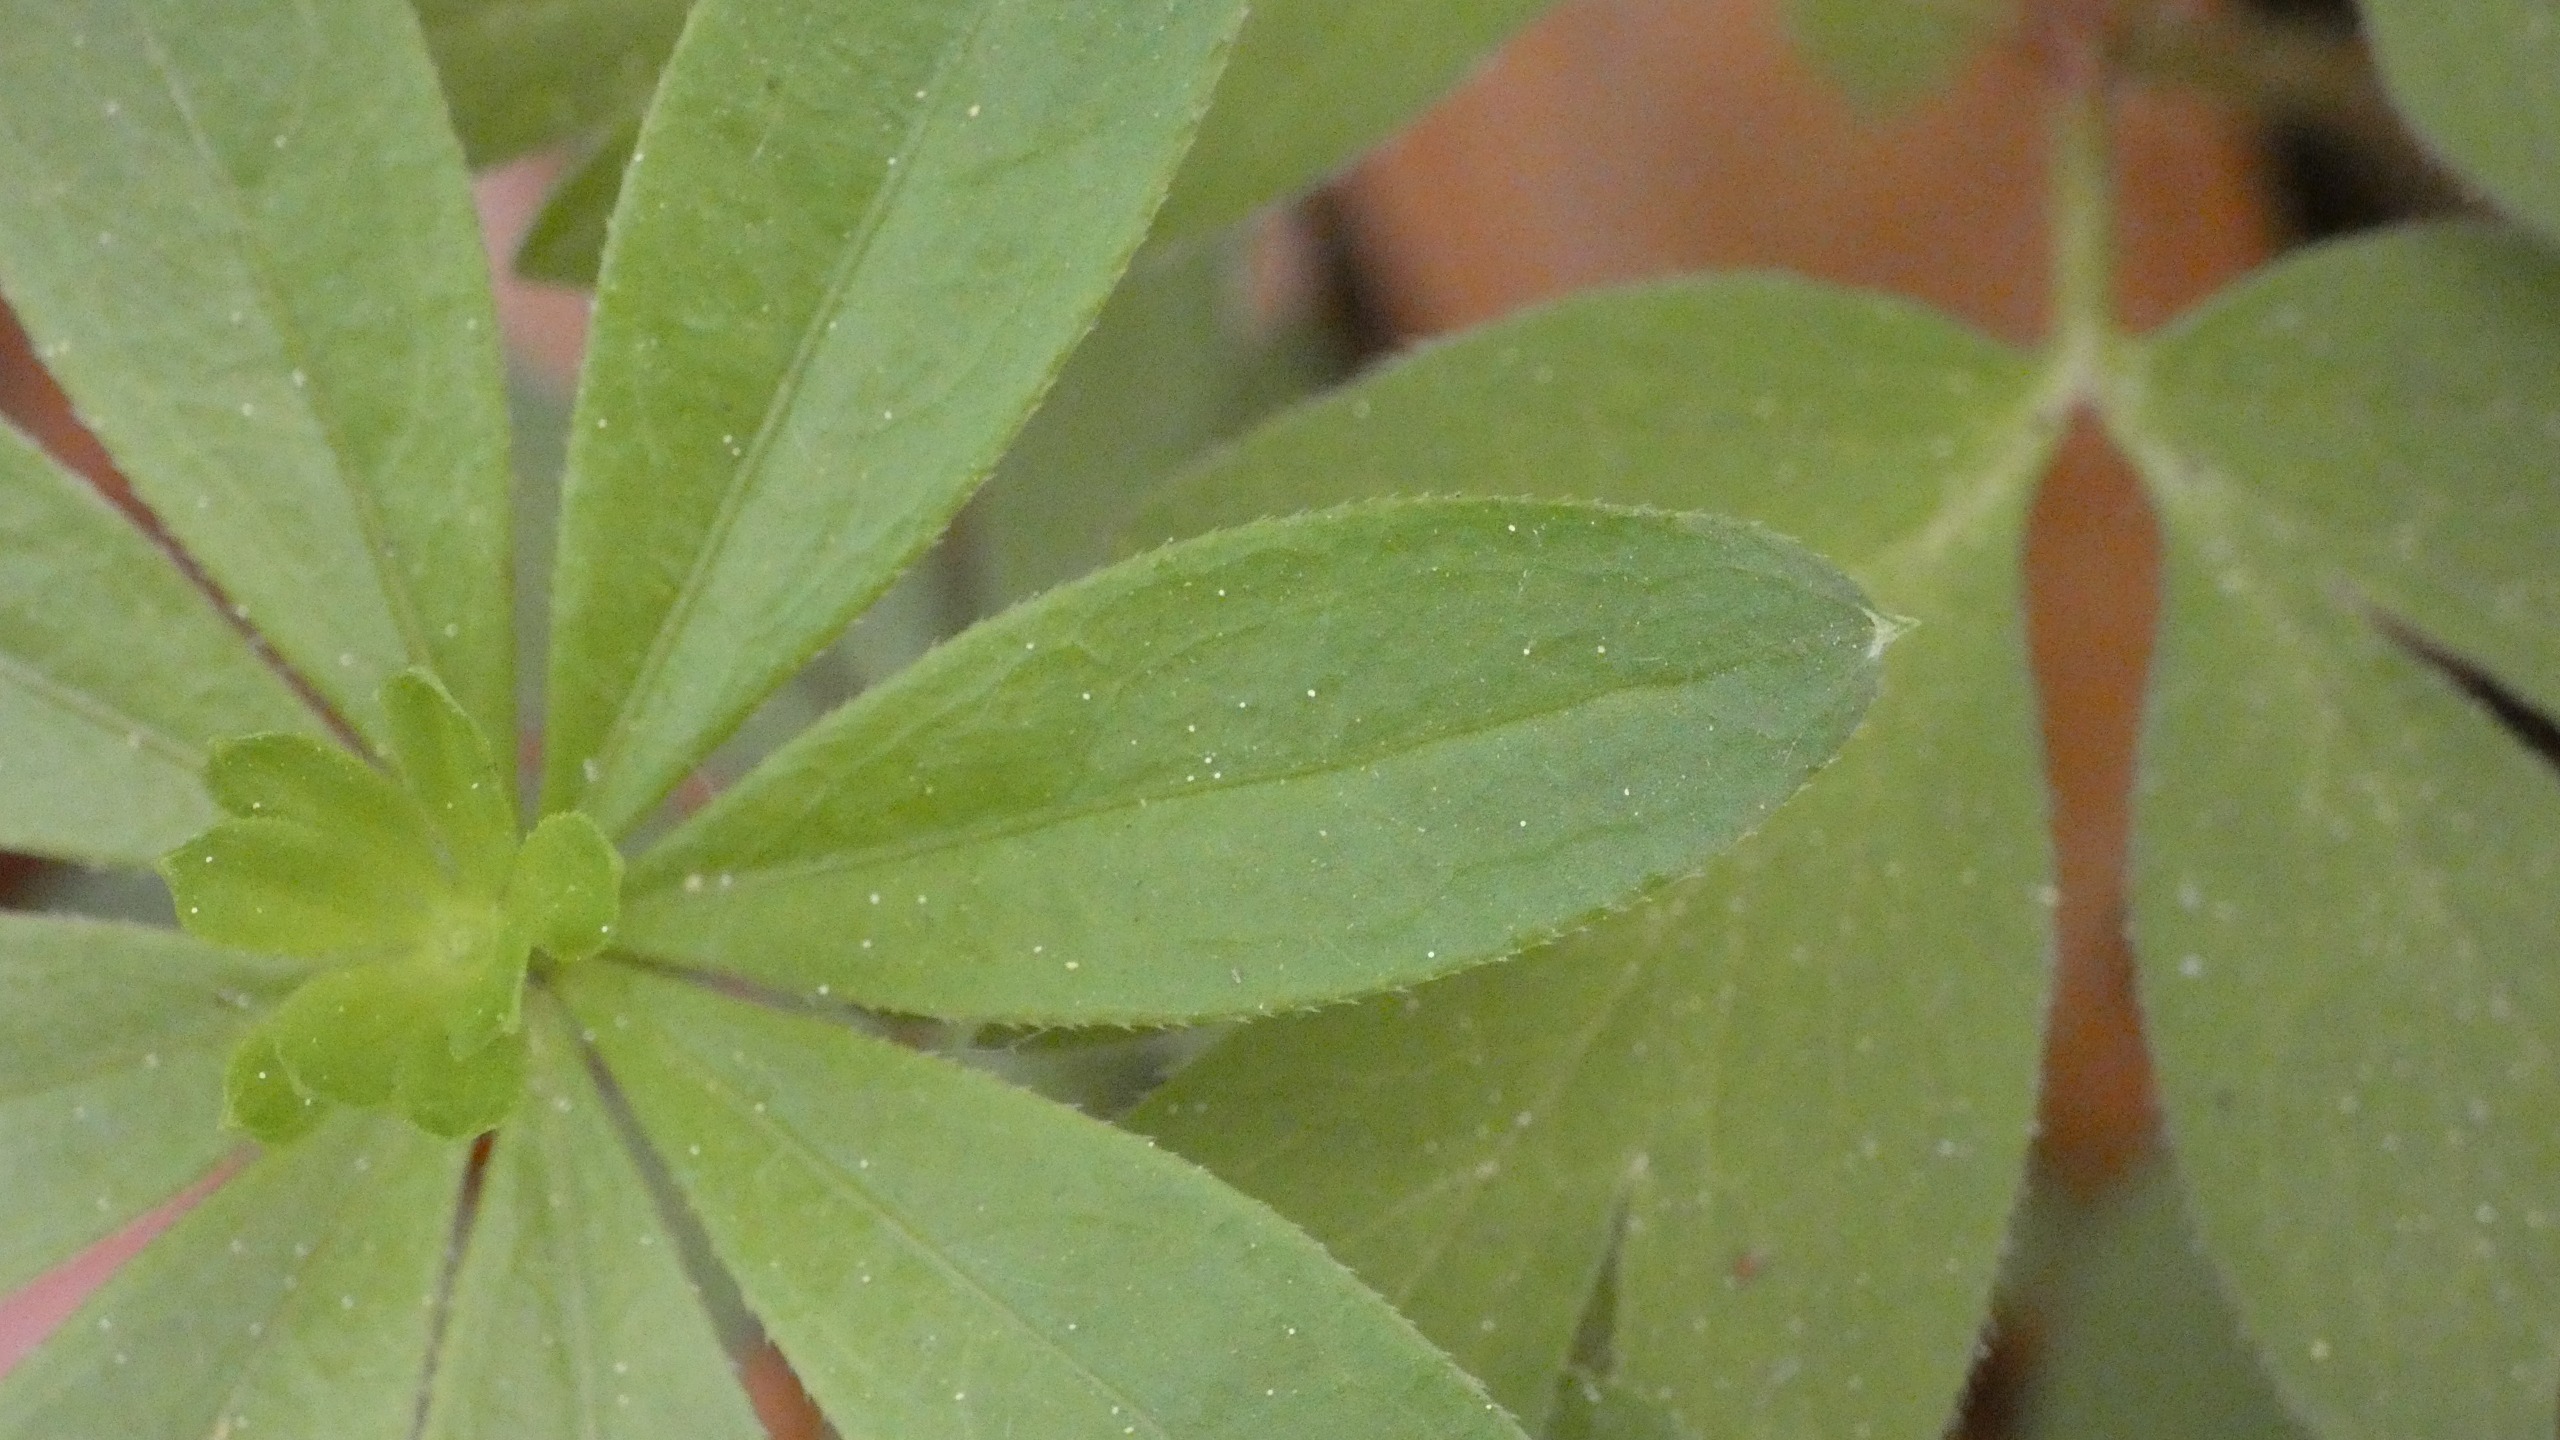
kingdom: Plantae
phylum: Tracheophyta
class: Magnoliopsida
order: Gentianales
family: Rubiaceae
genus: Galium
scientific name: Galium odoratum
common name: Skovmærke
